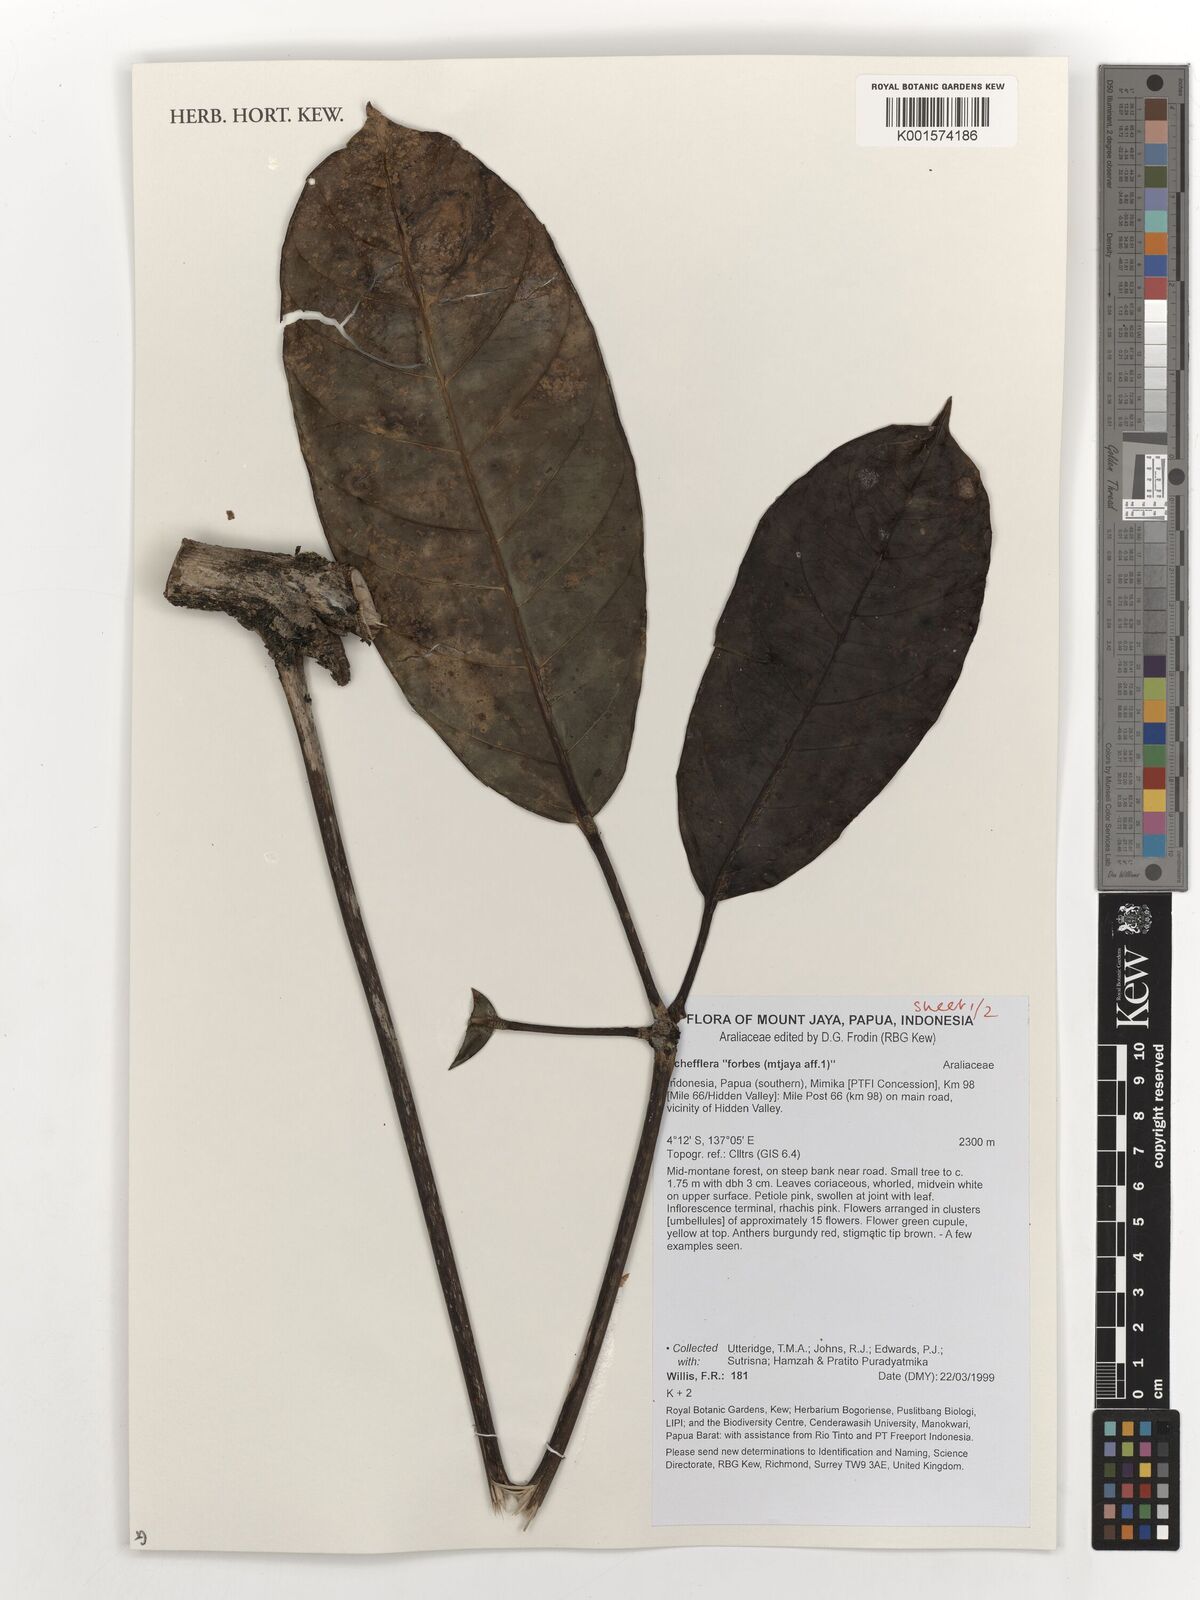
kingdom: Plantae
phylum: Tracheophyta
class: Magnoliopsida
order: Apiales
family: Araliaceae
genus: Schefflera
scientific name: Schefflera
